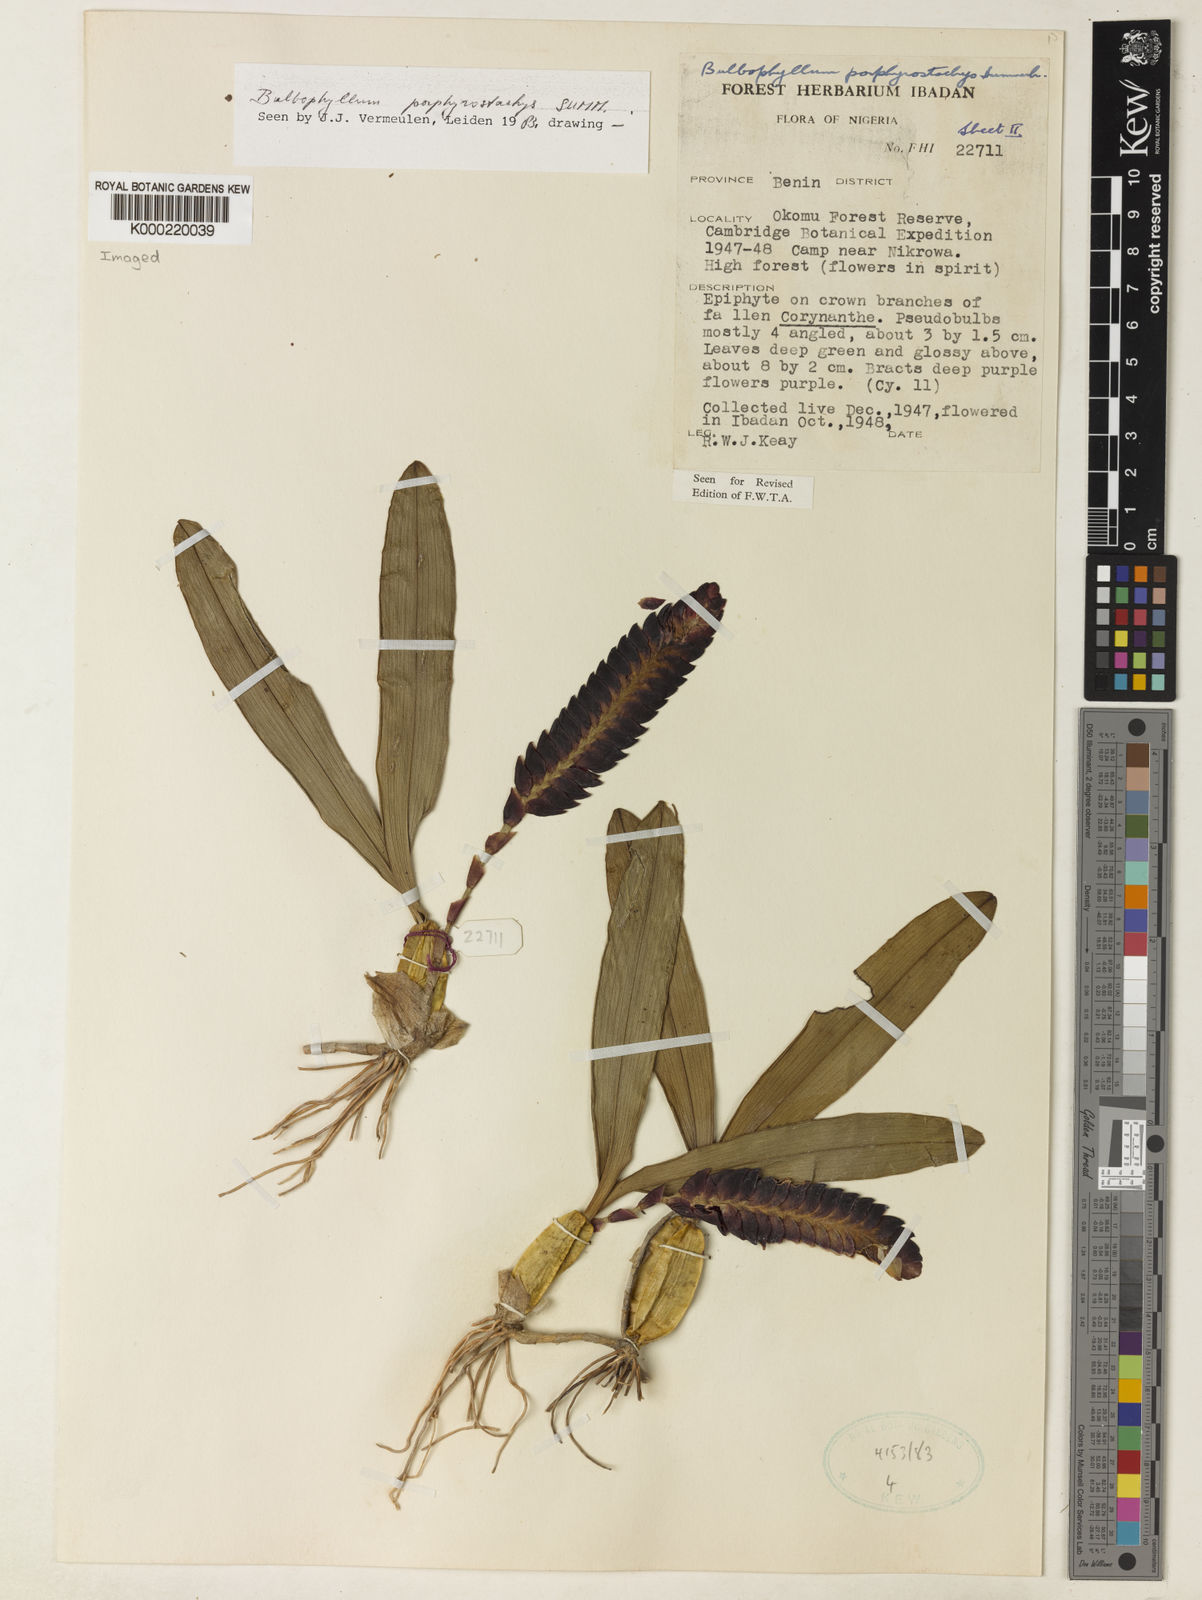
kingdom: Plantae
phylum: Tracheophyta
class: Liliopsida
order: Asparagales
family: Orchidaceae
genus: Bulbophyllum
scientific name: Bulbophyllum porphyrostachys
